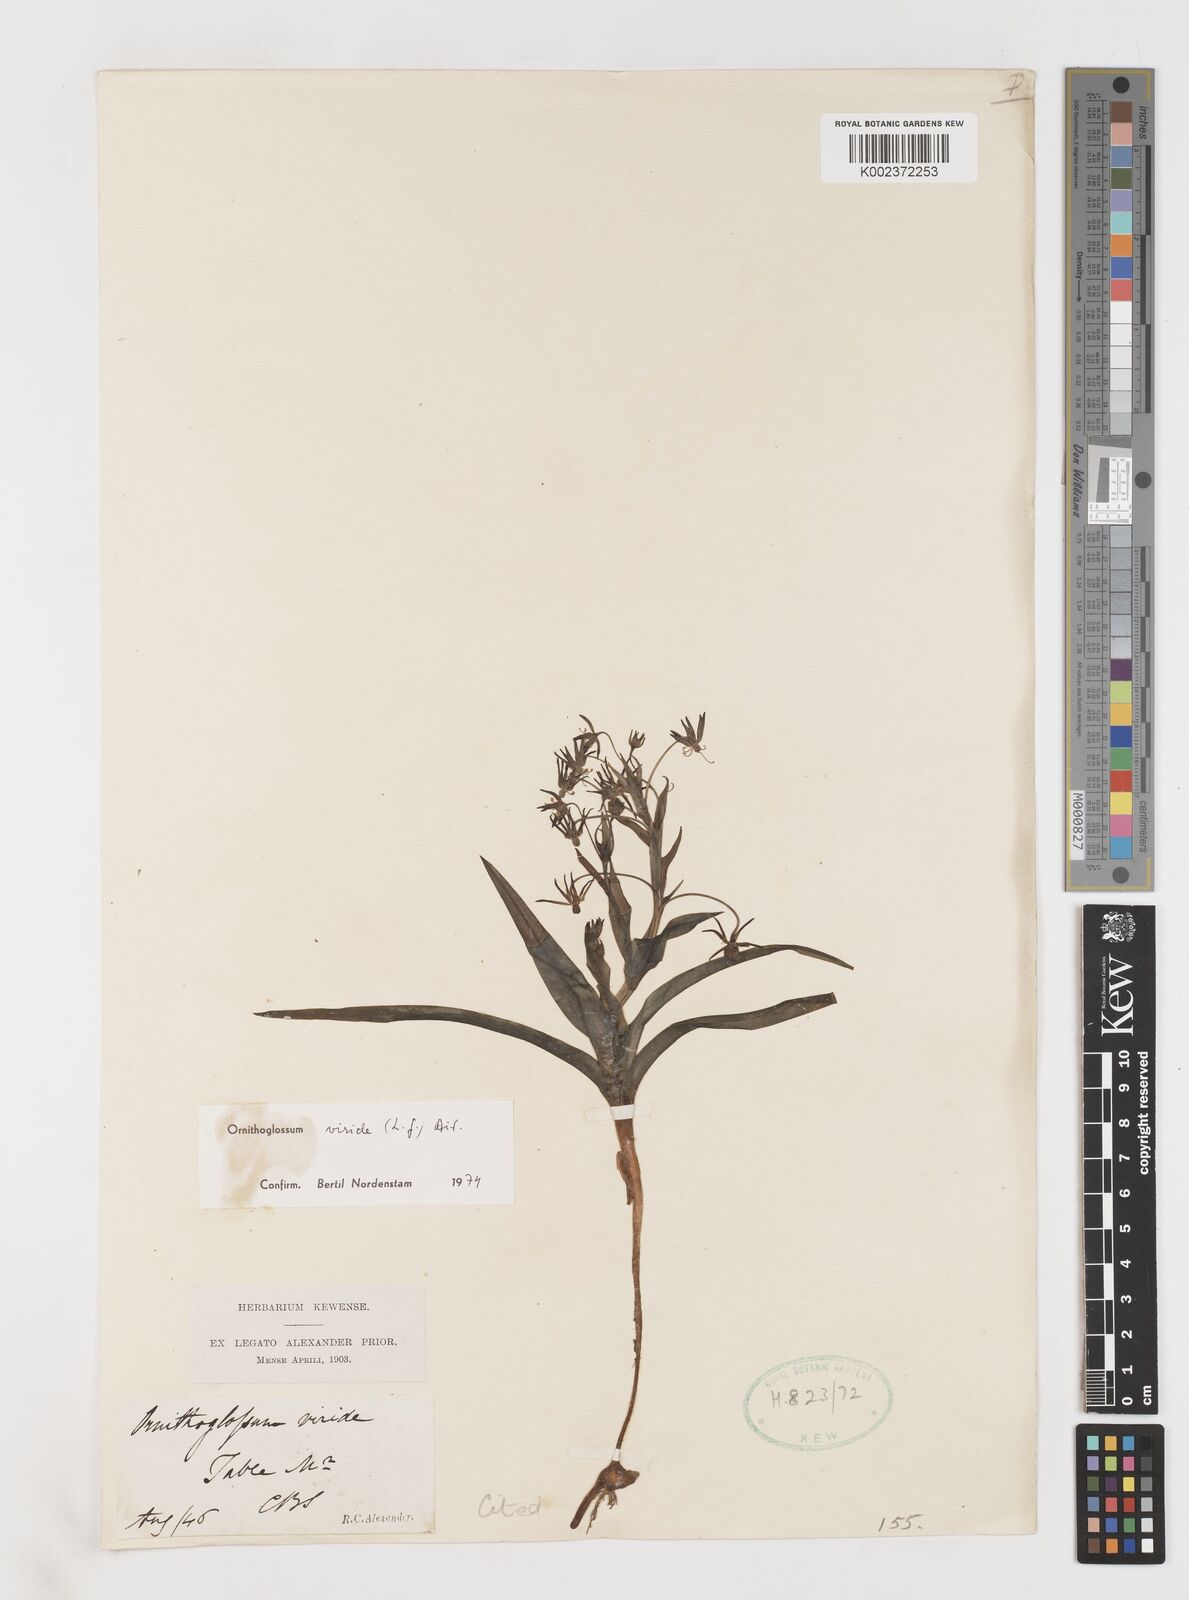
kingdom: Plantae
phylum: Tracheophyta
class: Liliopsida
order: Liliales
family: Colchicaceae
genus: Ornithoglossum
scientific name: Ornithoglossum viride
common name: Cape poison-onion
